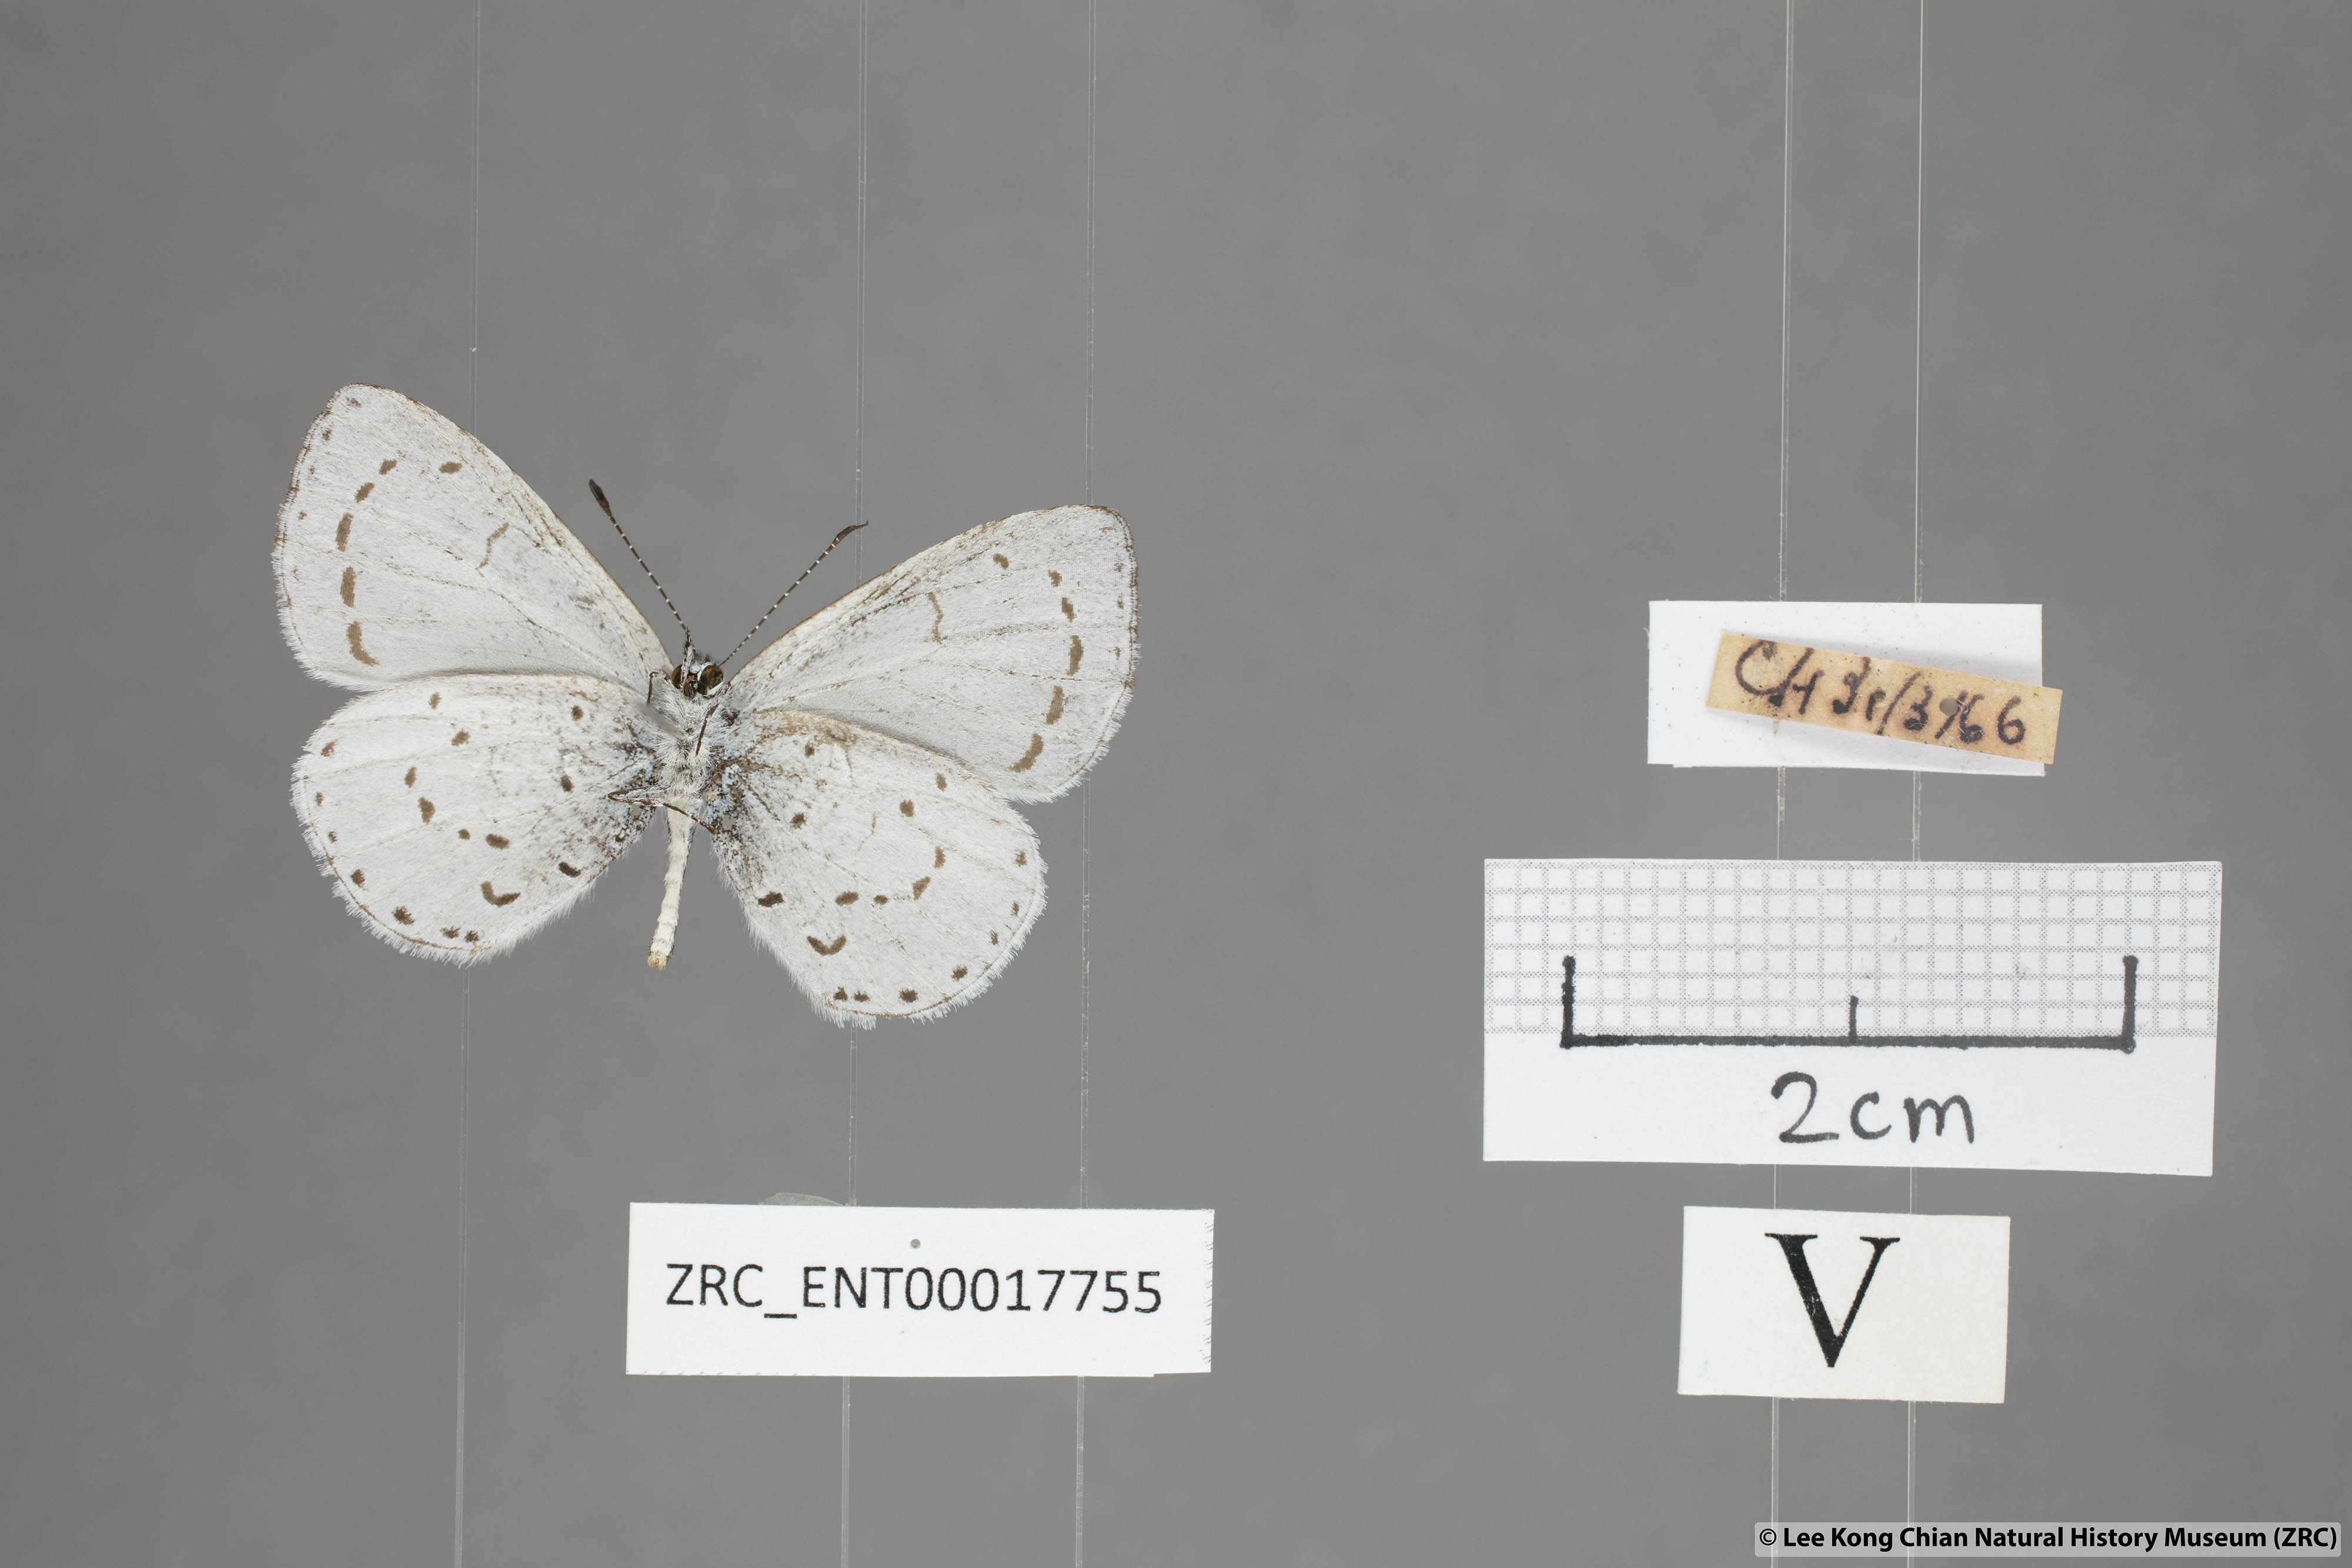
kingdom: Animalia
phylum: Arthropoda
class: Insecta
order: Lepidoptera
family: Lycaenidae
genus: Udara
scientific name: Udara toxopeusi
